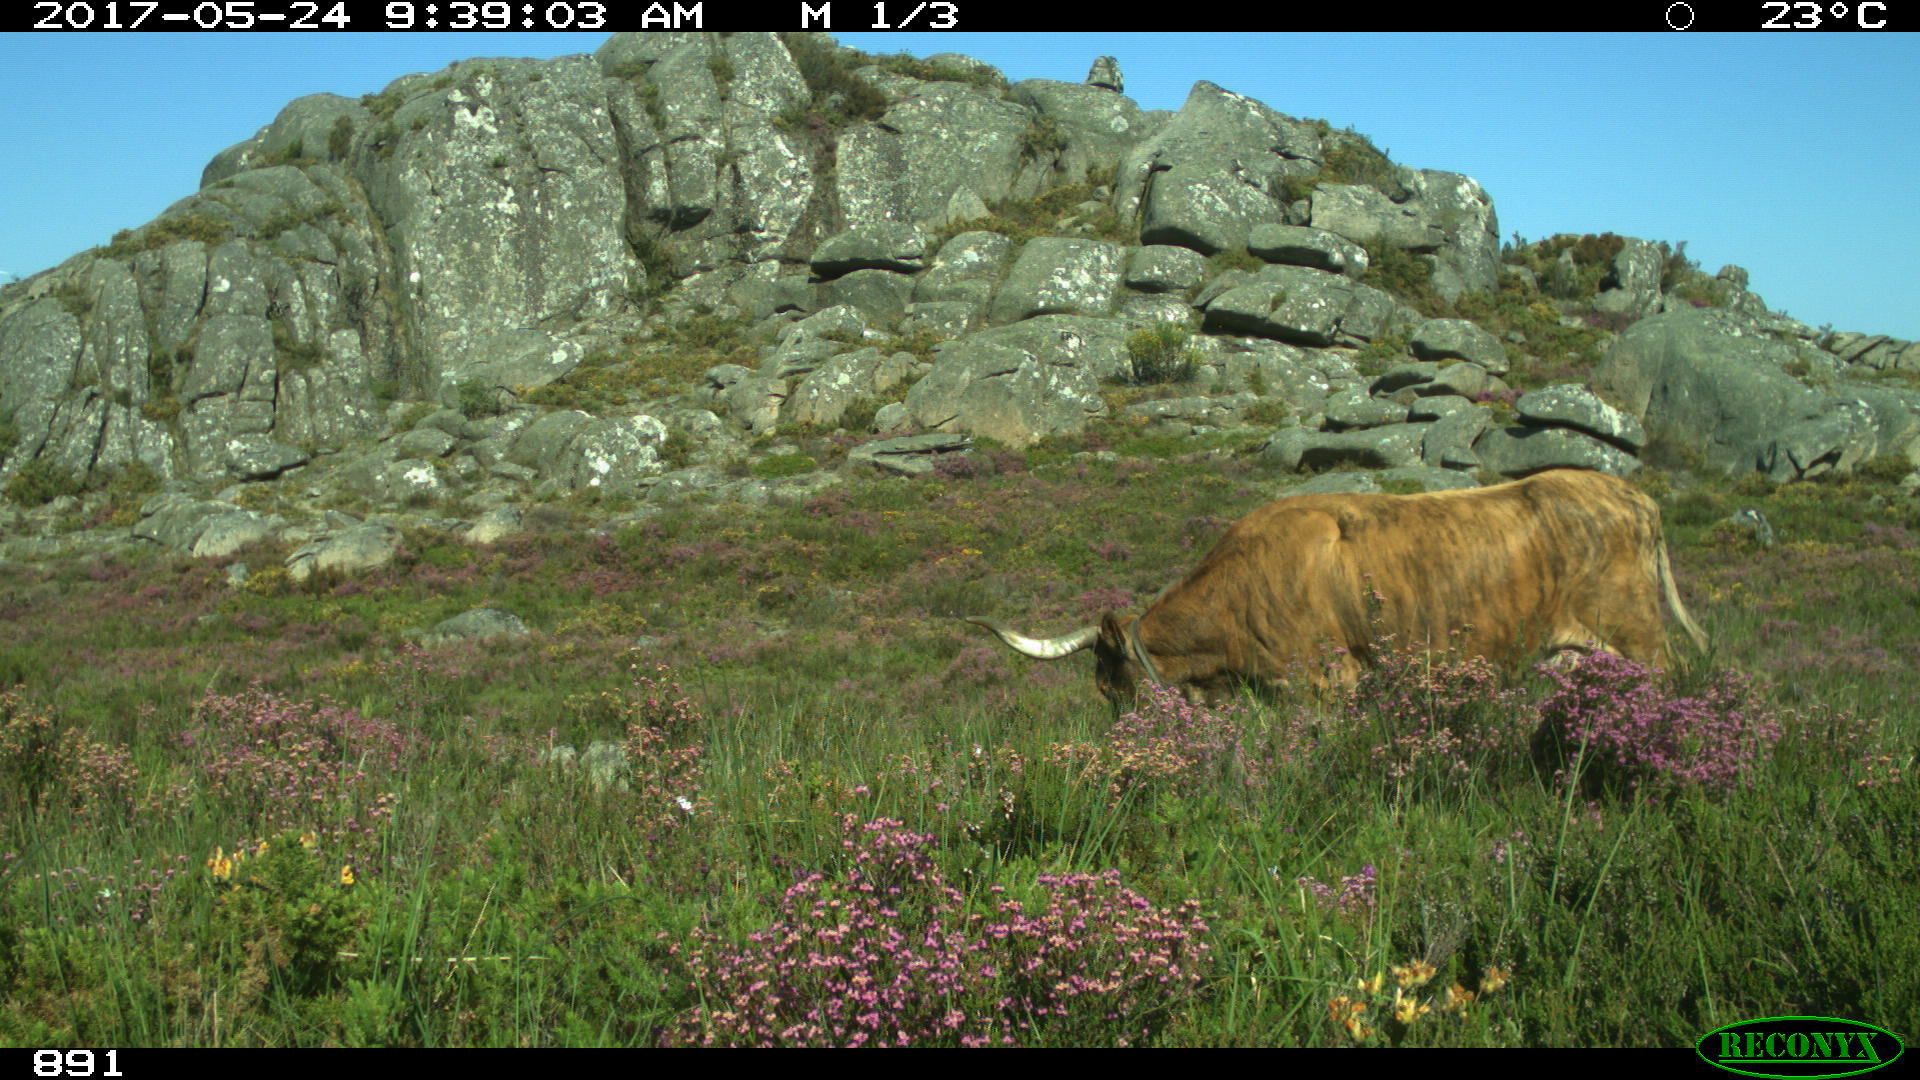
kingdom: Animalia
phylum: Chordata
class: Mammalia
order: Artiodactyla
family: Bovidae
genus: Bos
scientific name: Bos taurus
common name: Domesticated cattle
